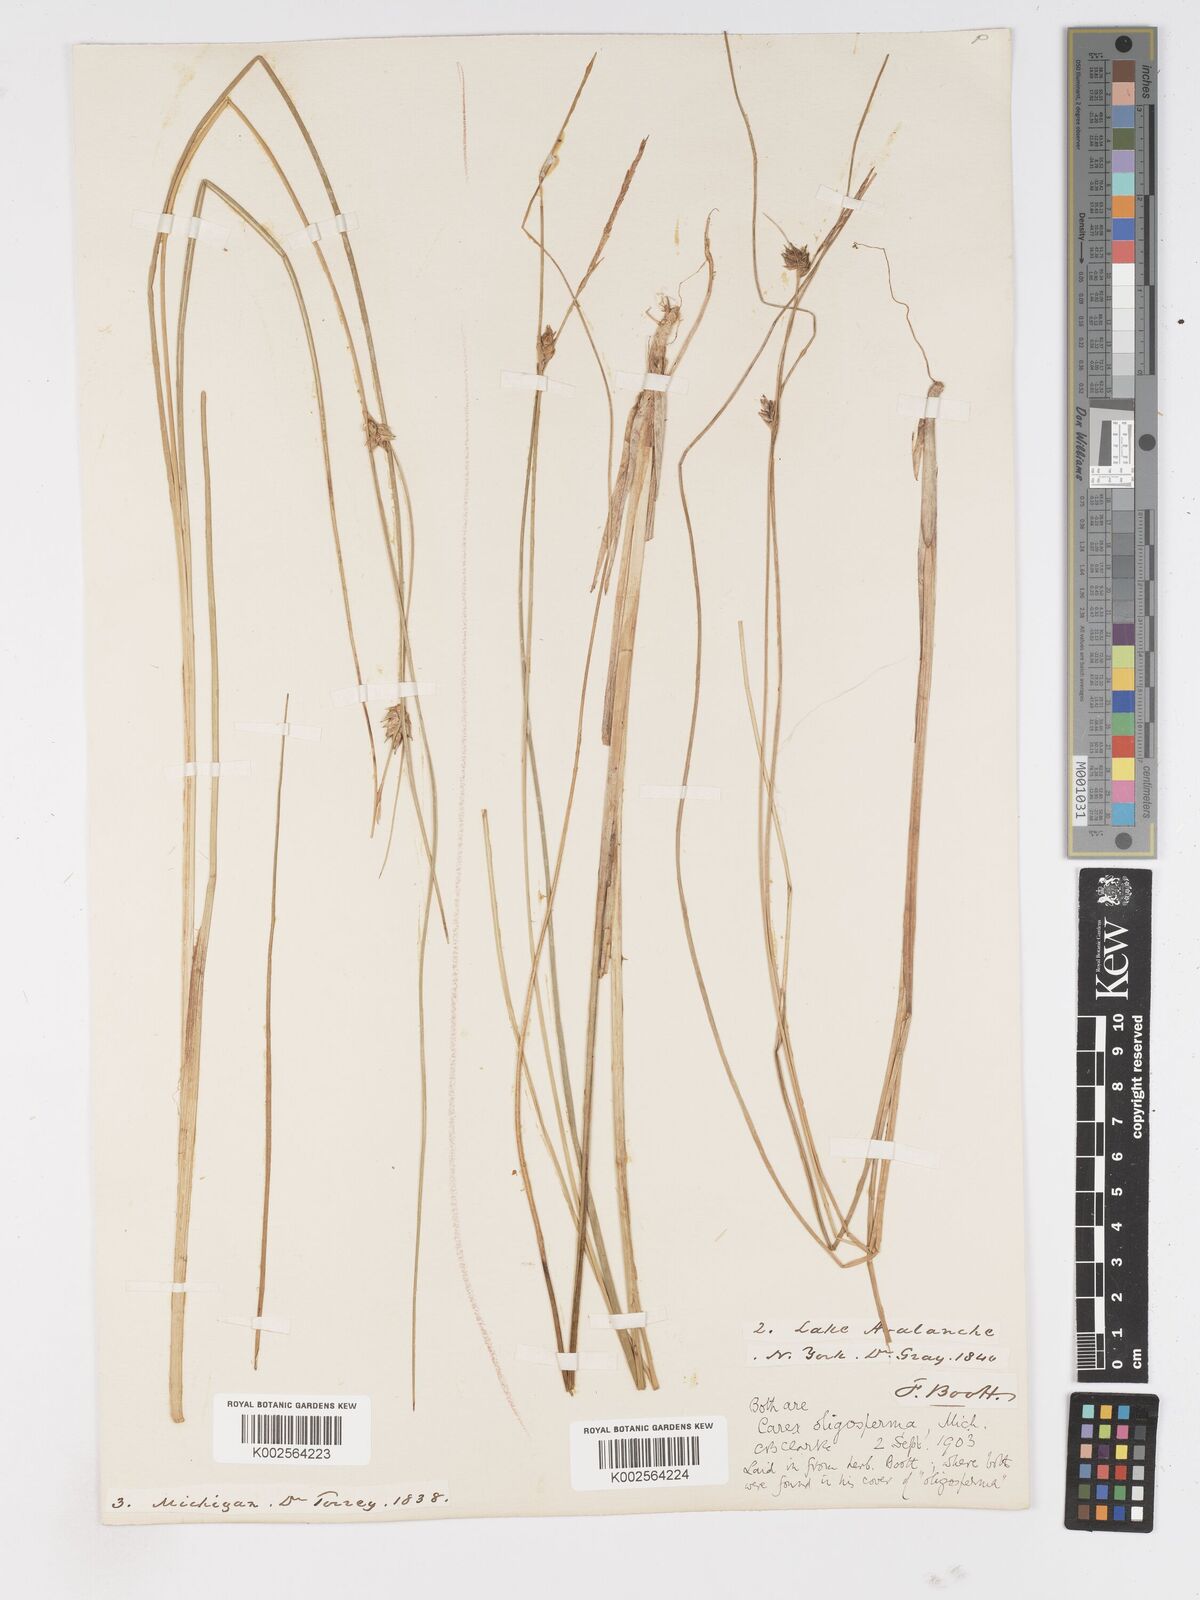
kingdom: Plantae
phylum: Tracheophyta
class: Liliopsida
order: Poales
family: Cyperaceae
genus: Carex
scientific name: Carex oligosperma
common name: Few-seed sedge
